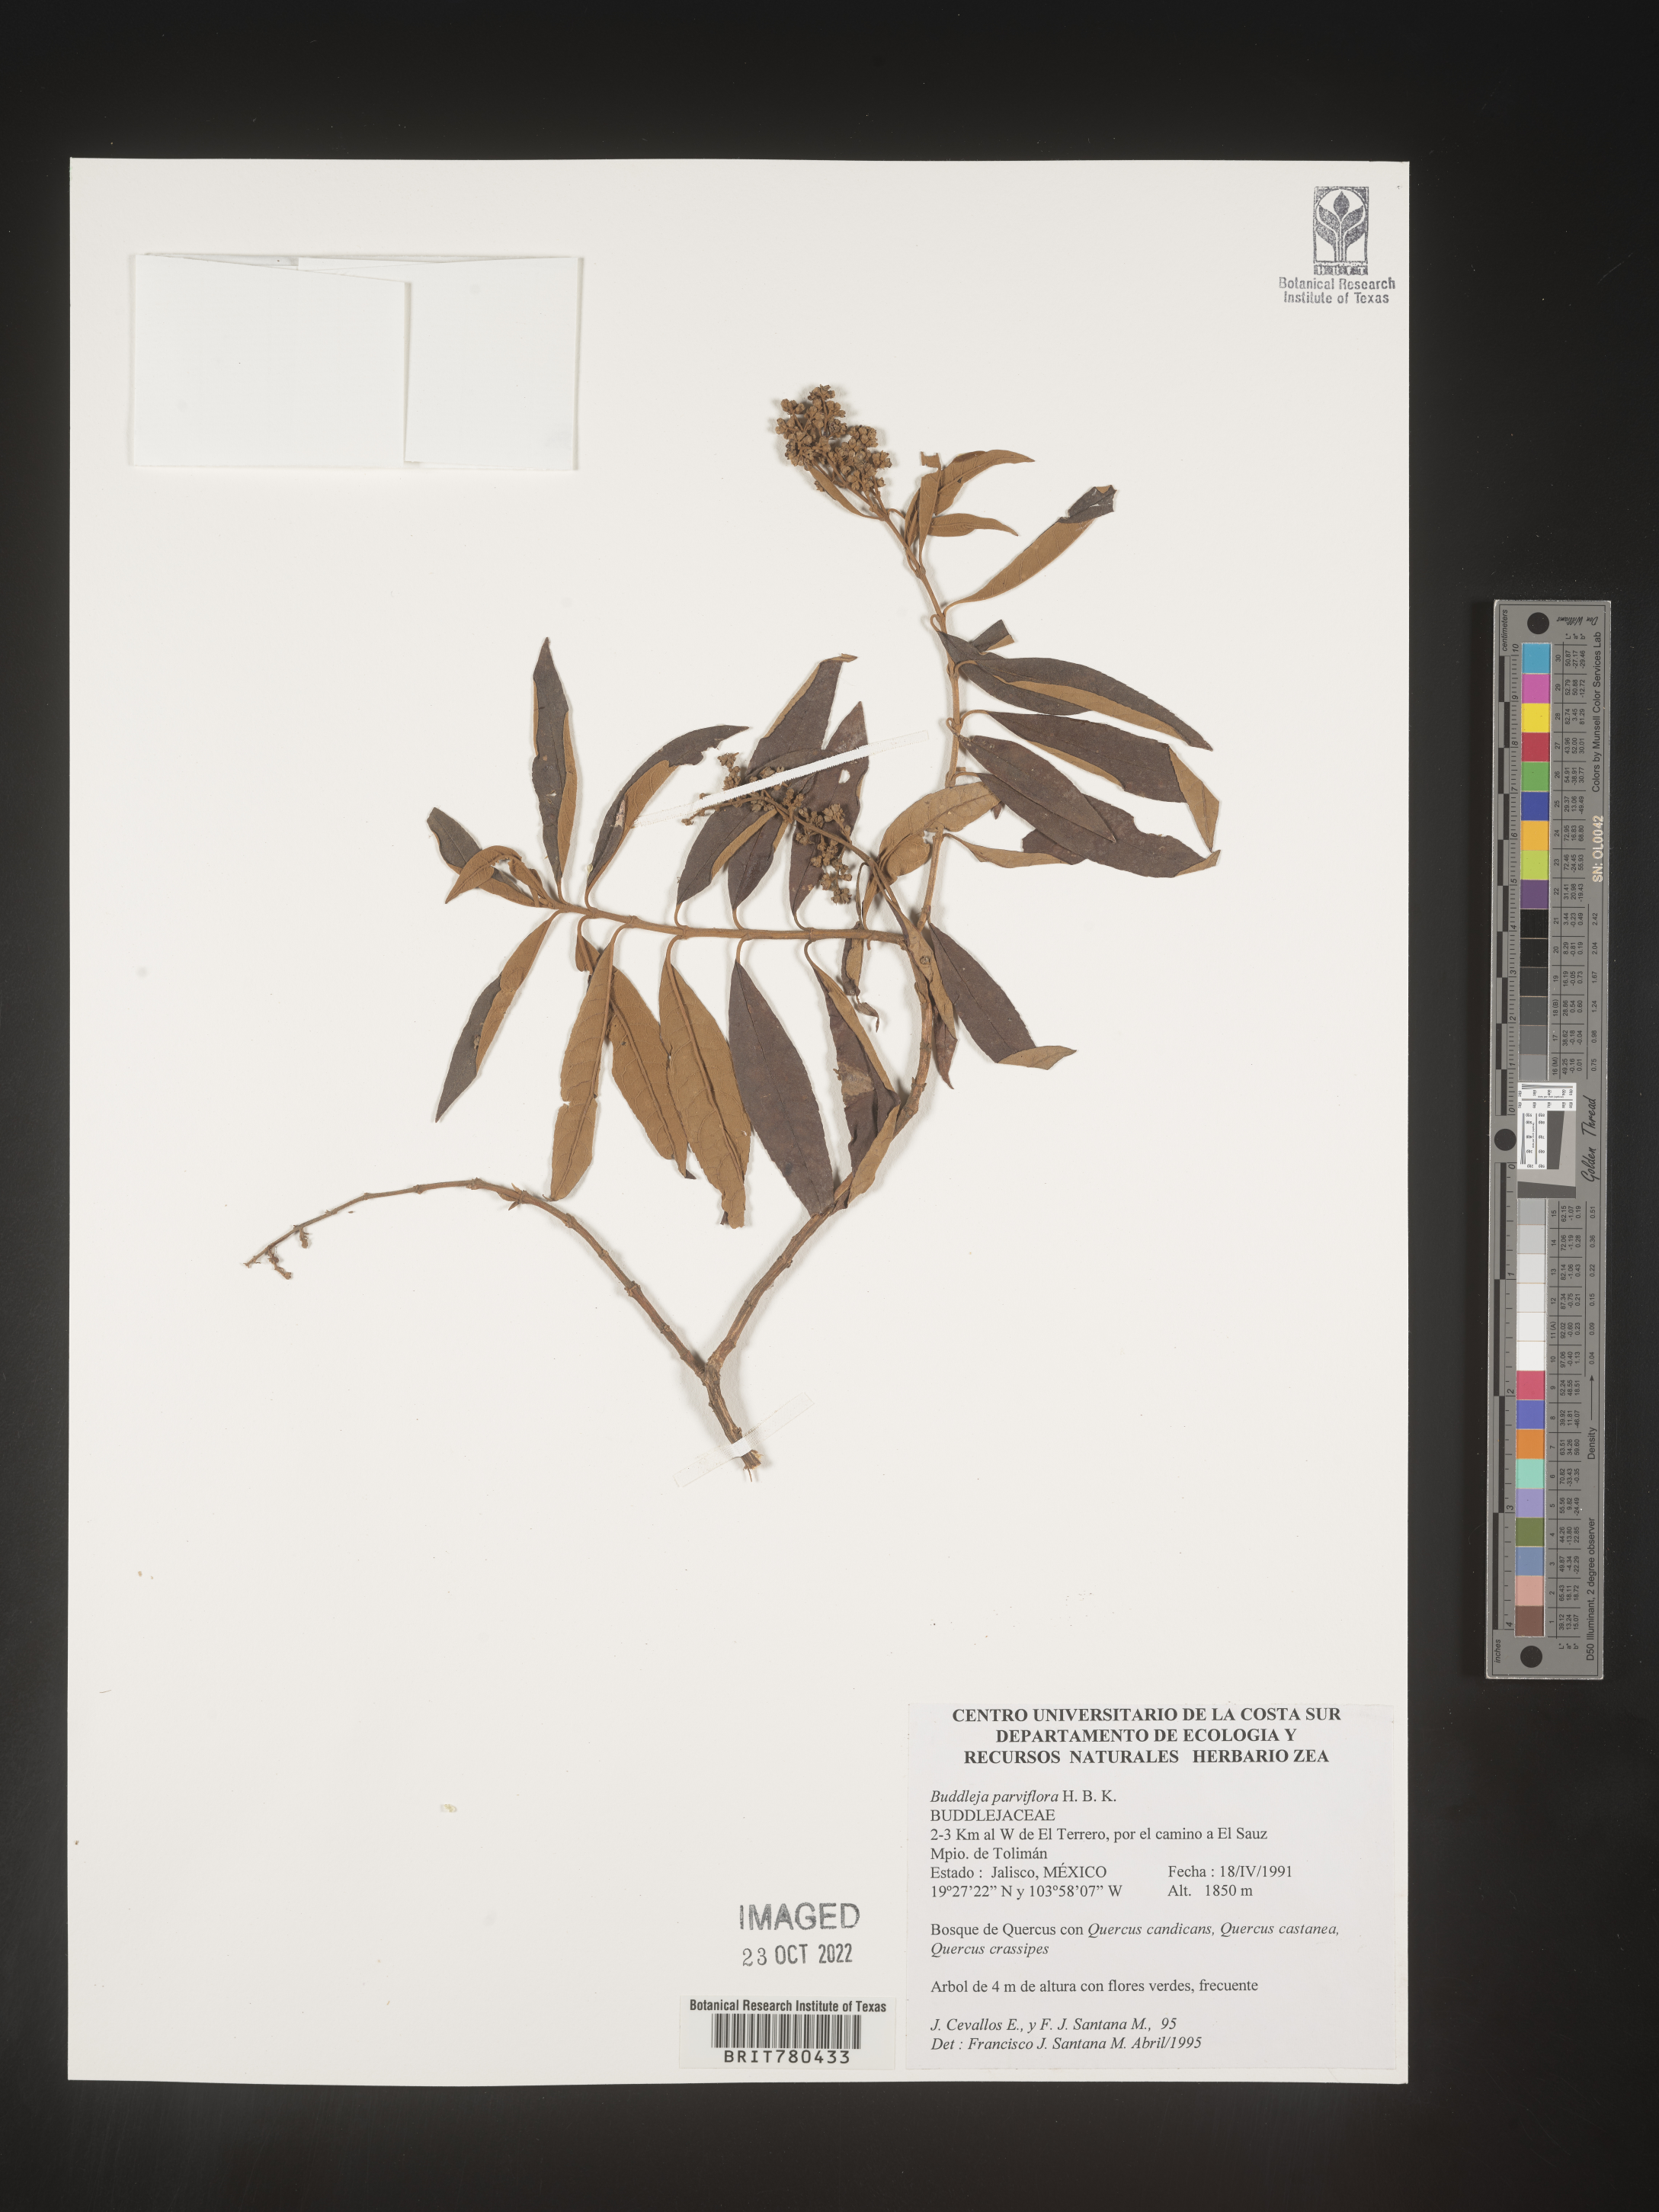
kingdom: Plantae
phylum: Tracheophyta
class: Magnoliopsida
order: Lamiales
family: Scrophulariaceae
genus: Buddleja
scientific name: Buddleja parviflora
